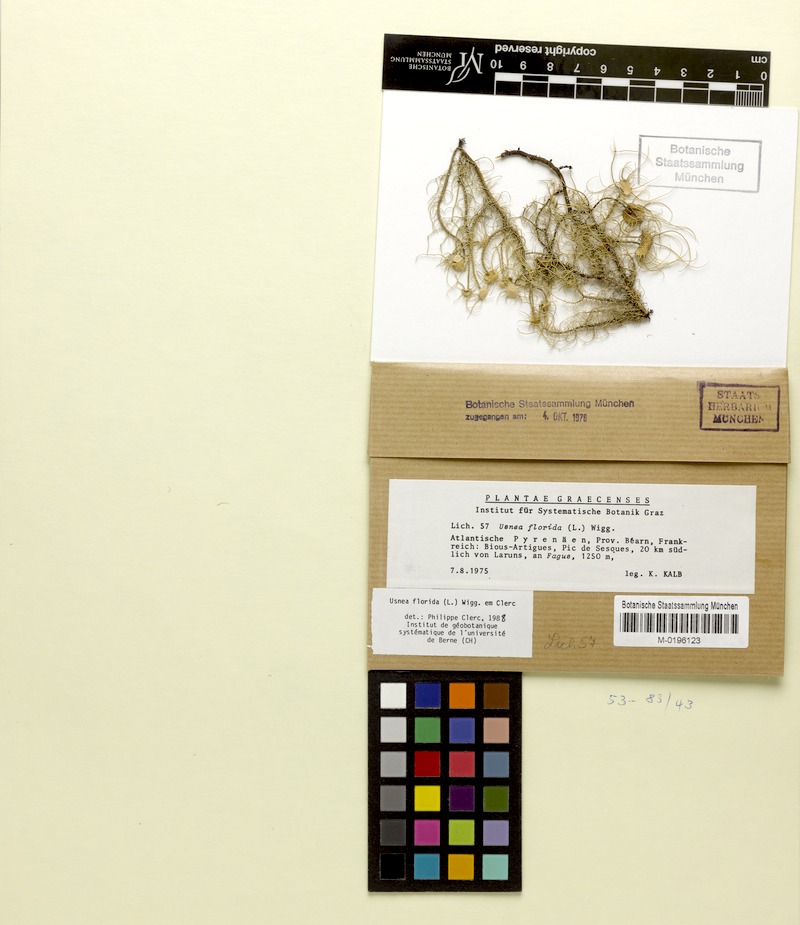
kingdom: Fungi
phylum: Ascomycota
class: Lecanoromycetes
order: Lecanorales
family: Parmeliaceae
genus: Usnea
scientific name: Usnea florida
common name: Witches' whiskers lichen
